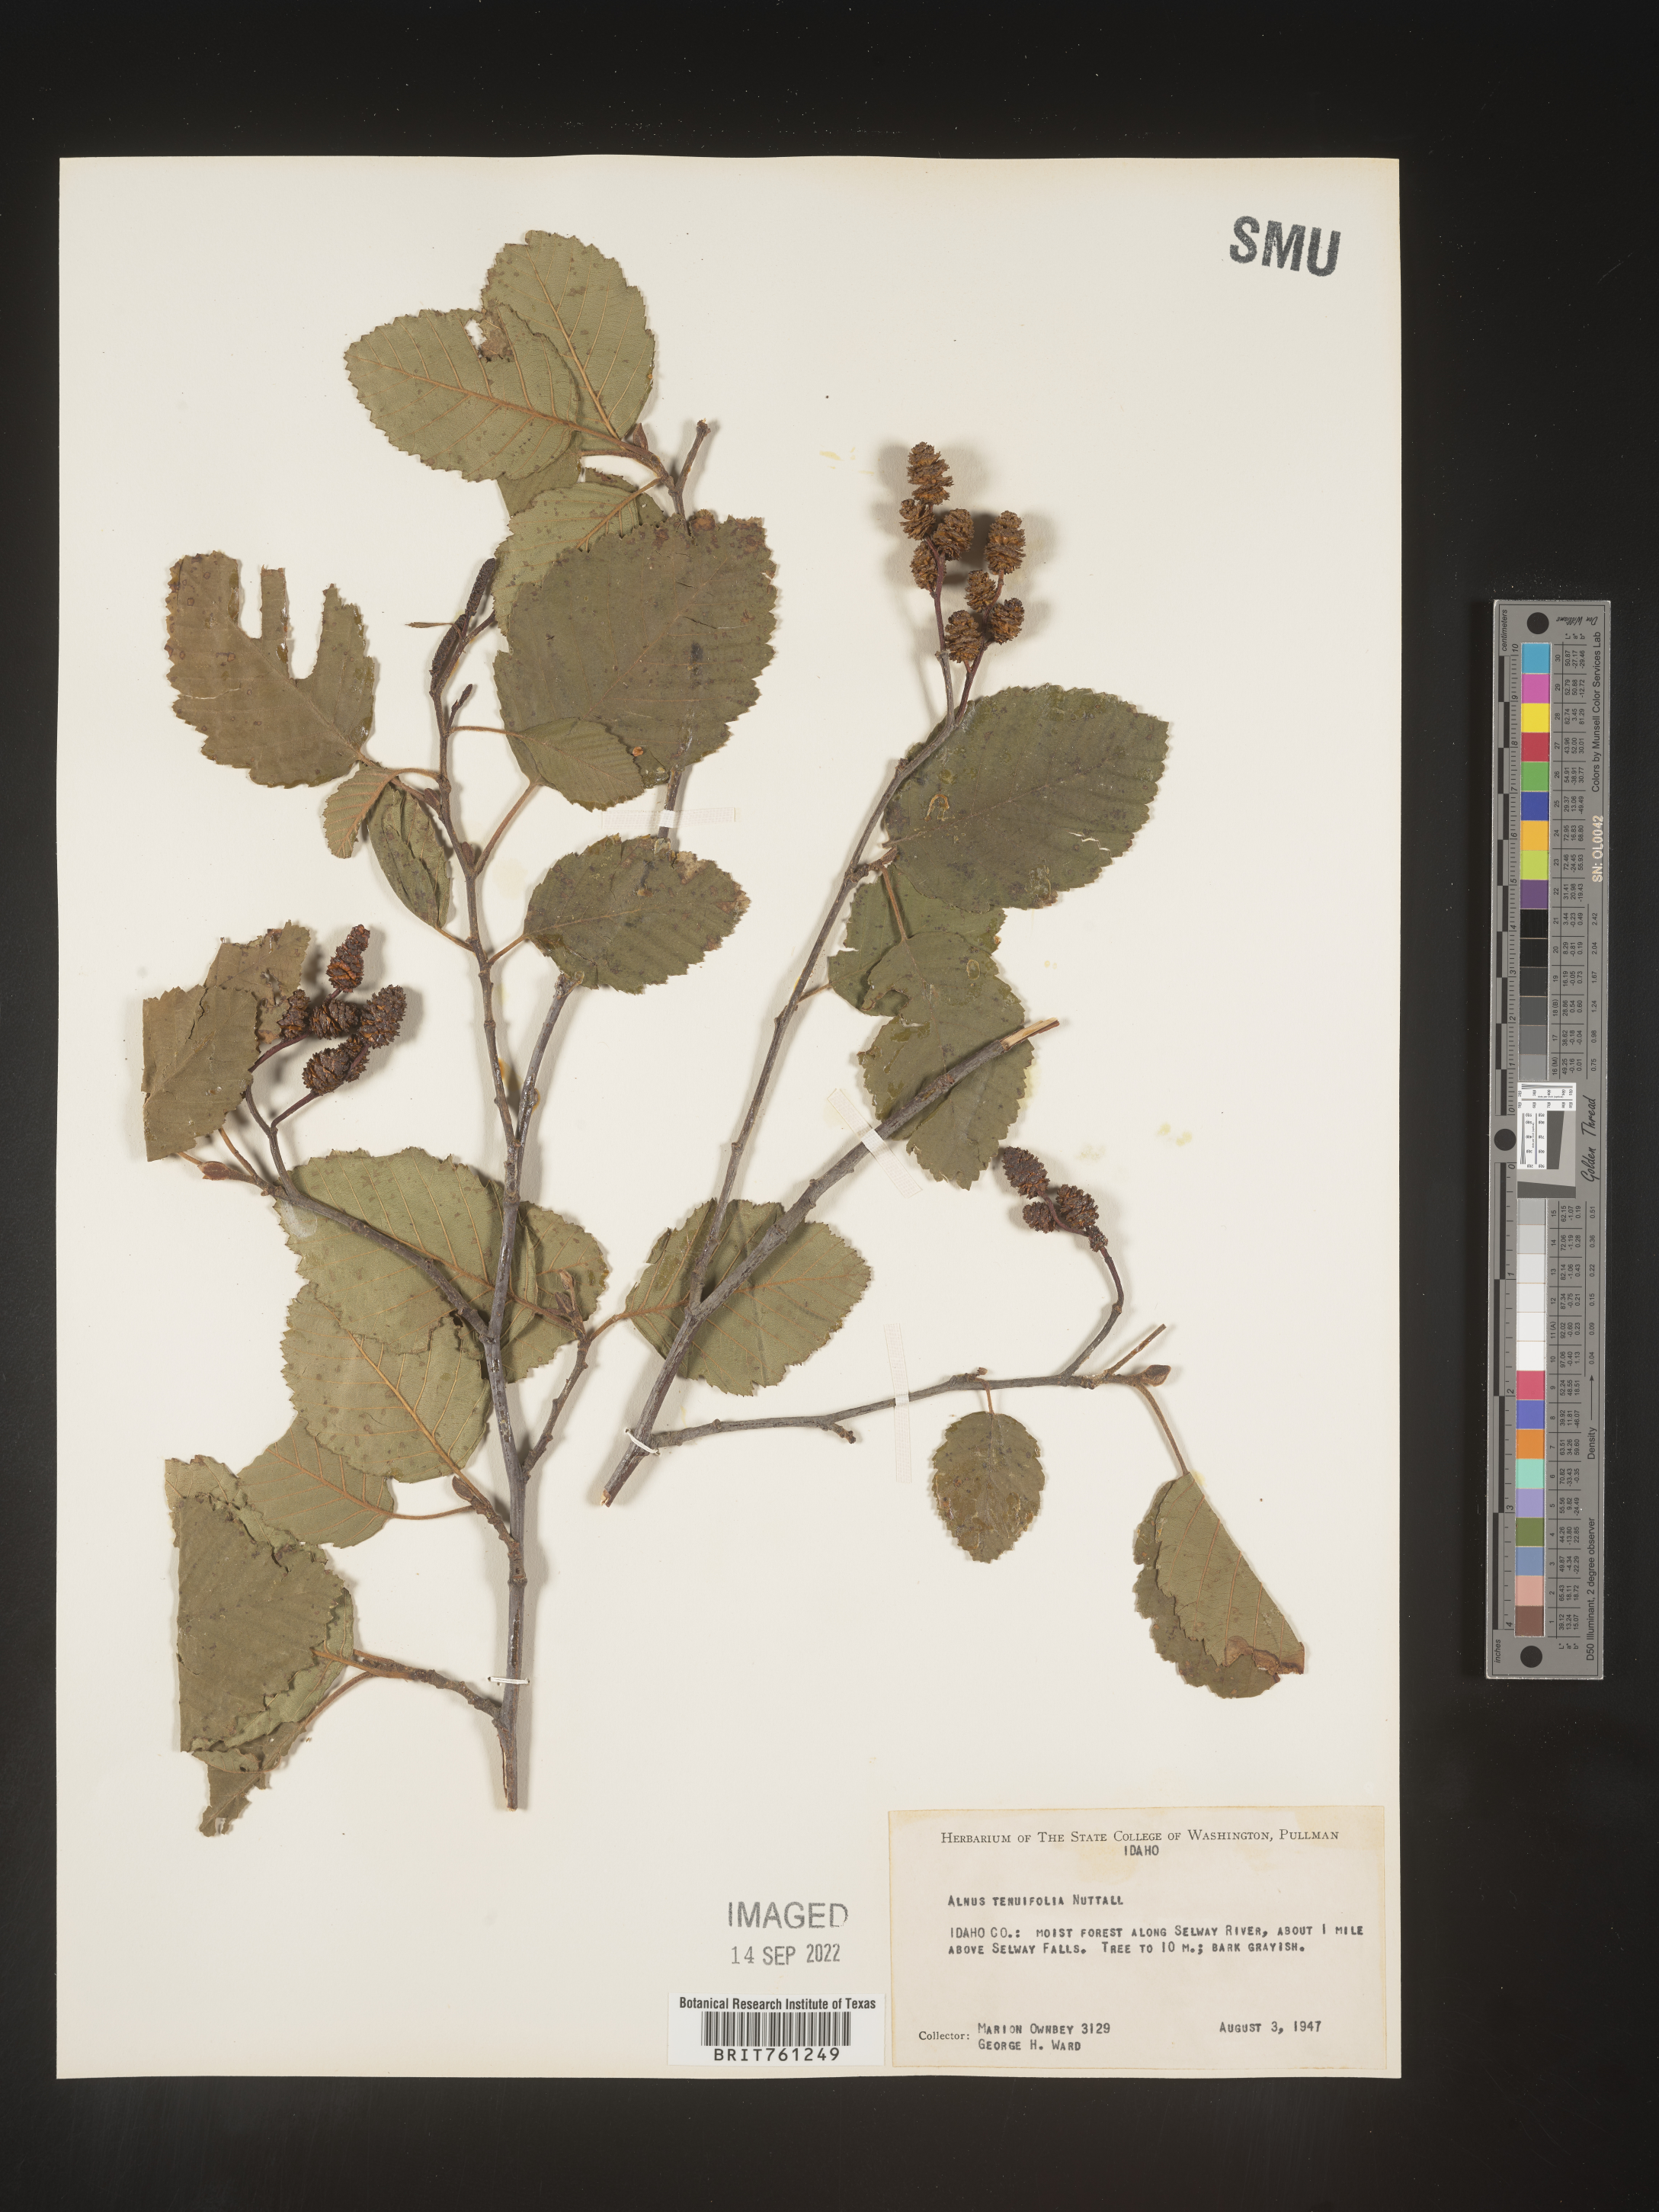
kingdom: Plantae
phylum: Tracheophyta
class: Magnoliopsida
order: Fagales
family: Betulaceae
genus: Alnus
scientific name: Alnus incana
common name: Grey alder
